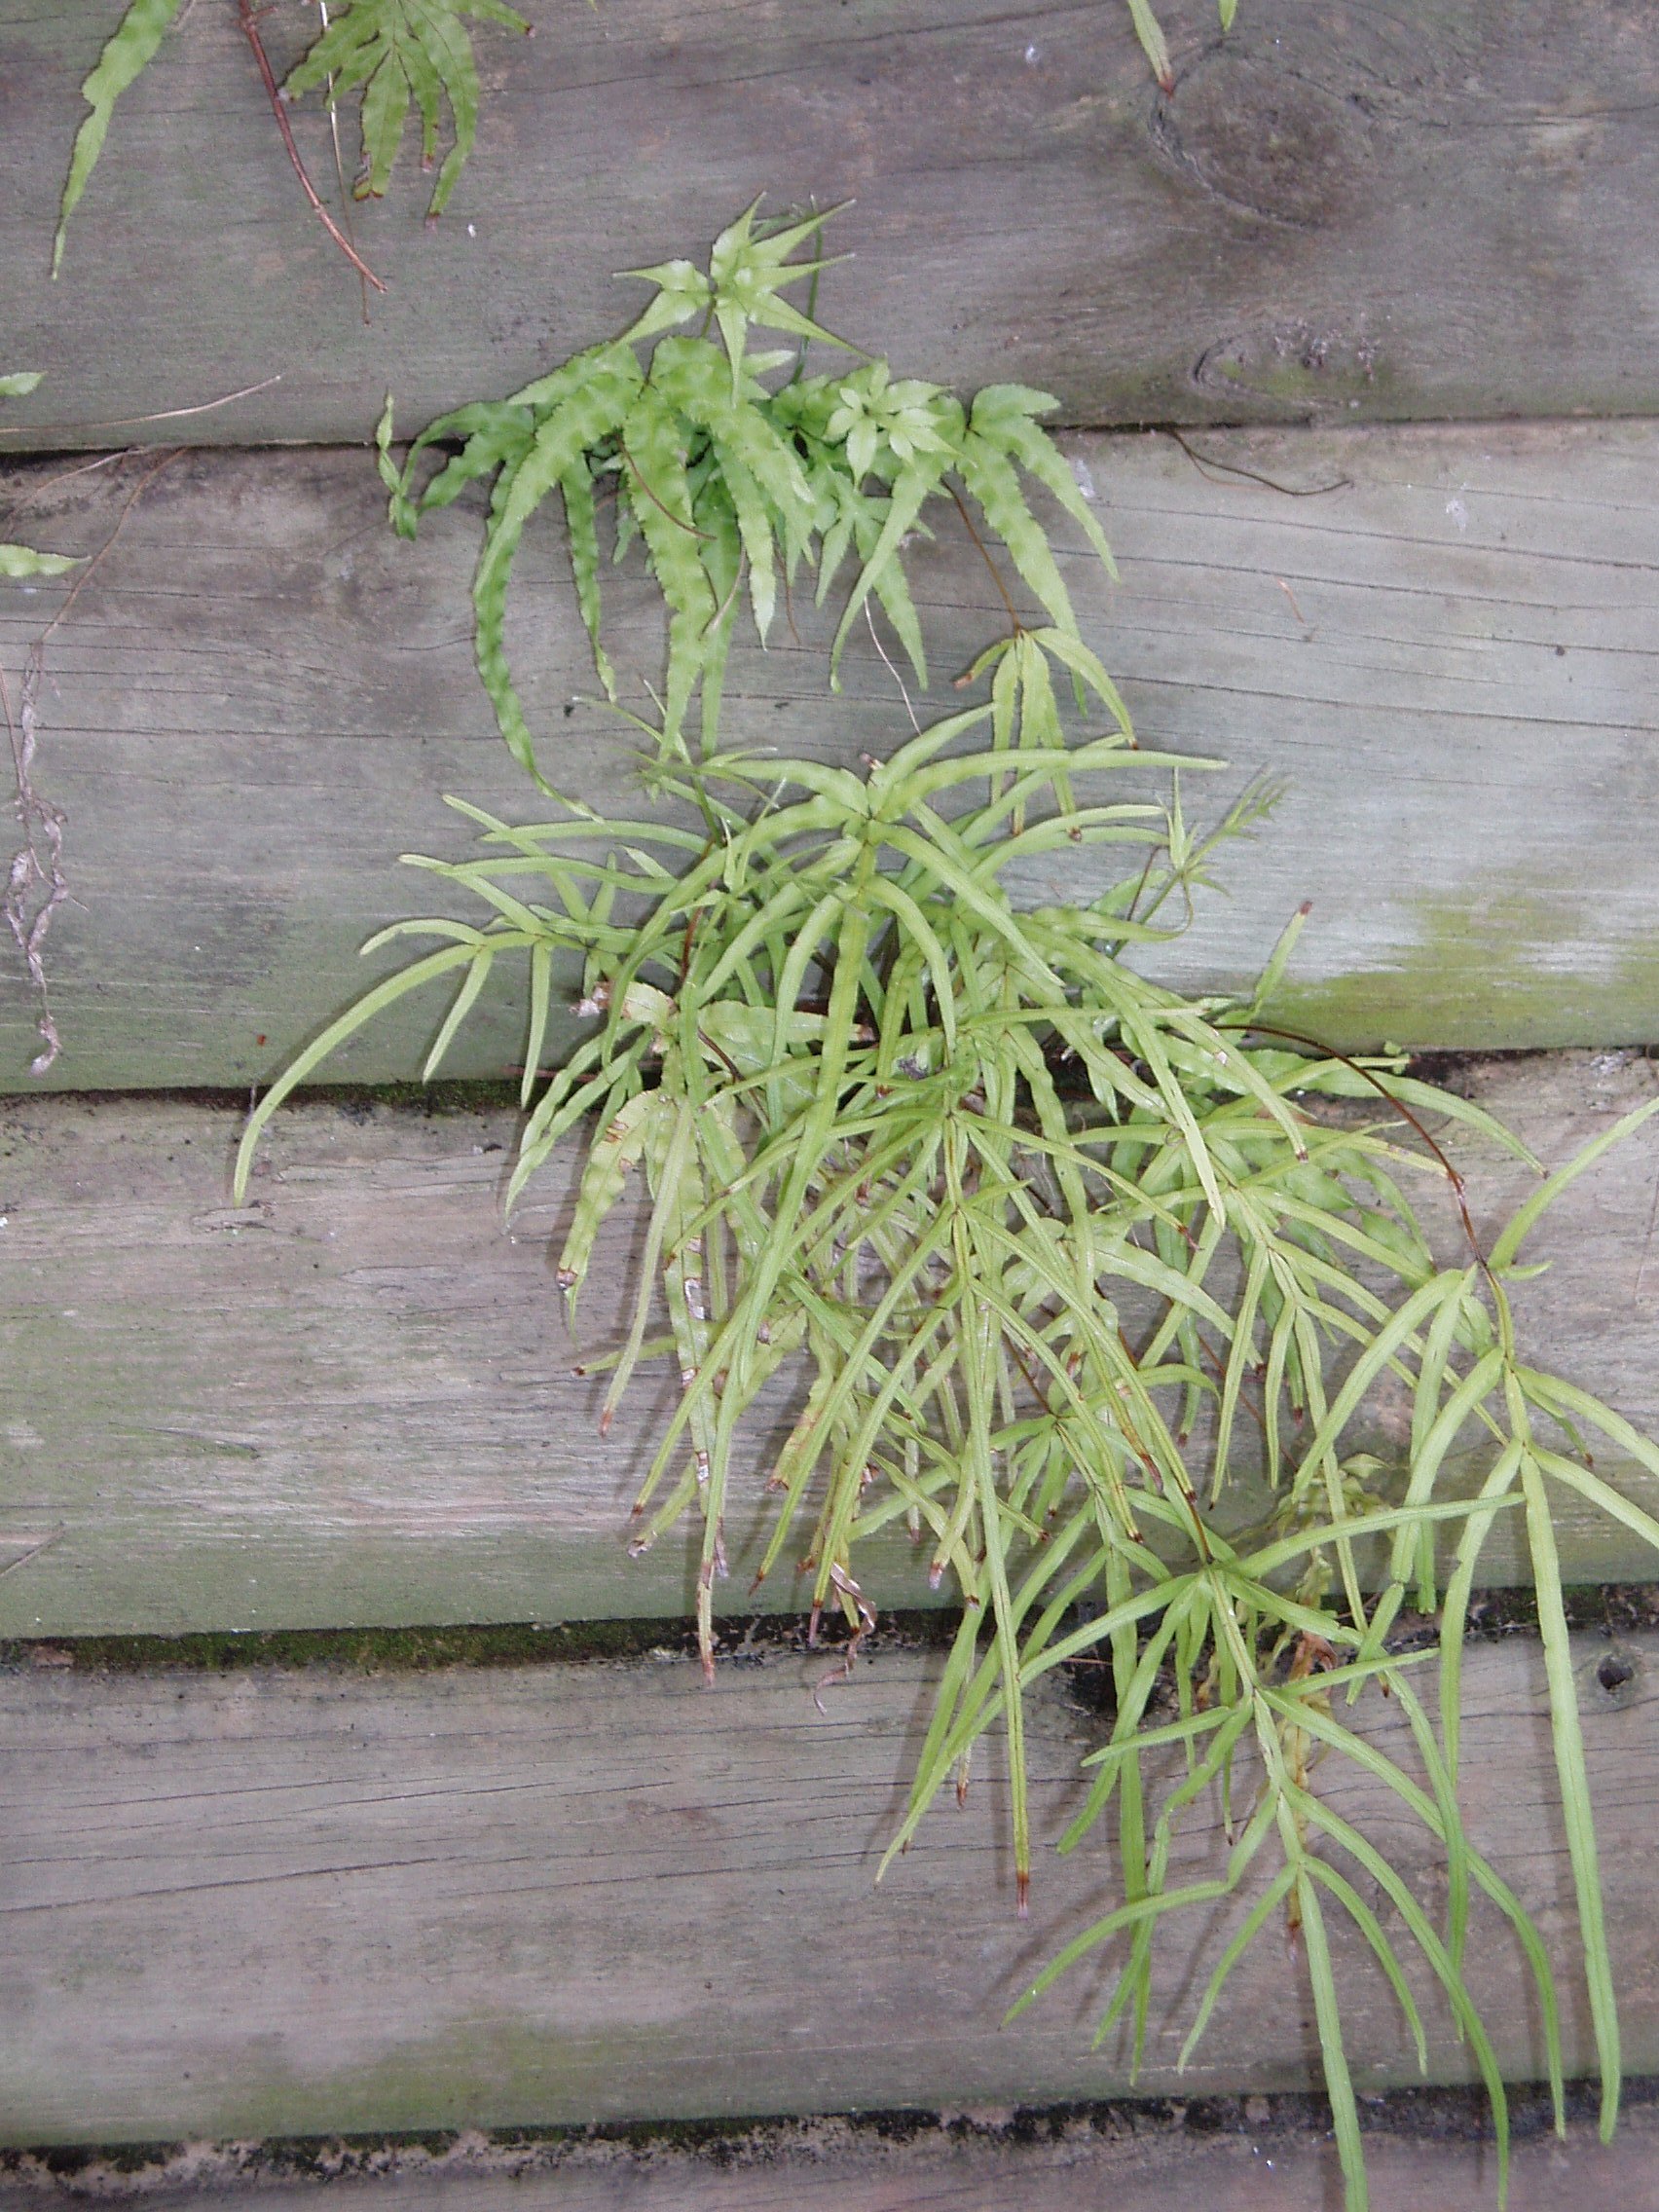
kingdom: Plantae
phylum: Tracheophyta
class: Polypodiopsida
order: Polypodiales
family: Pteridaceae
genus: Pteris
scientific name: Pteris multifida
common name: Spider brake
